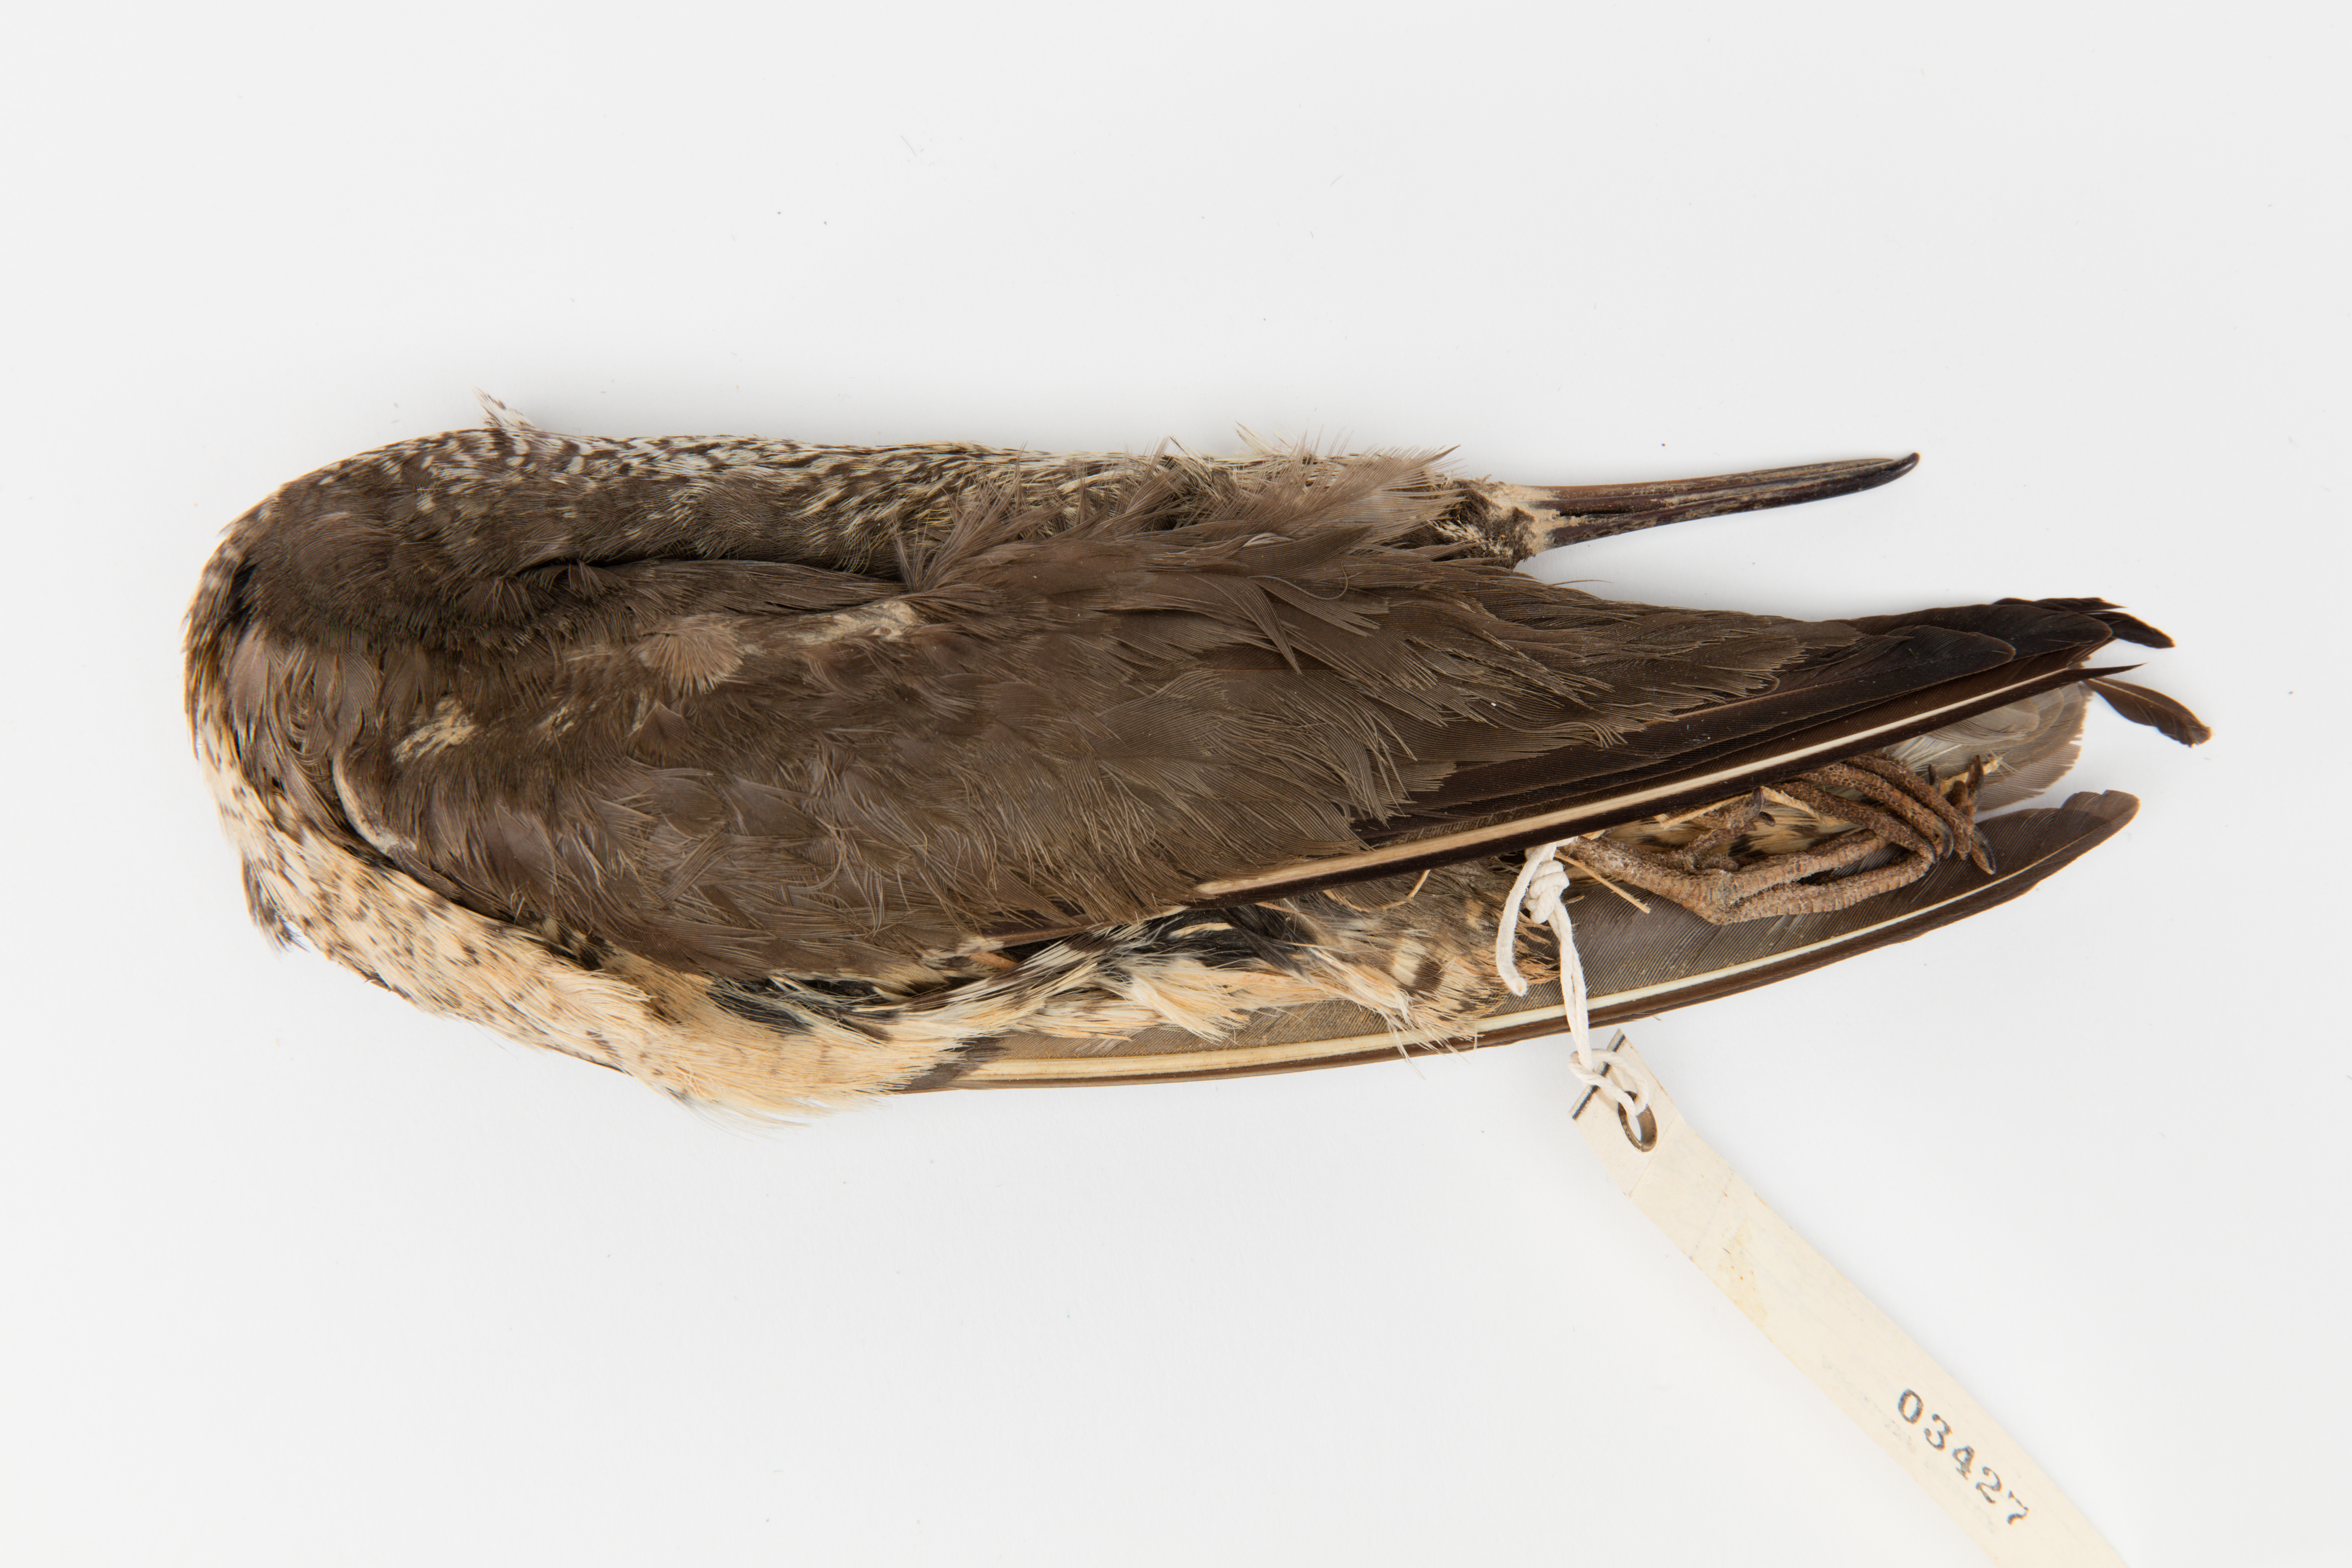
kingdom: Animalia
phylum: Chordata
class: Aves
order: Charadriiformes
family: Scolopacidae
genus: Tringa
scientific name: Tringa incana
